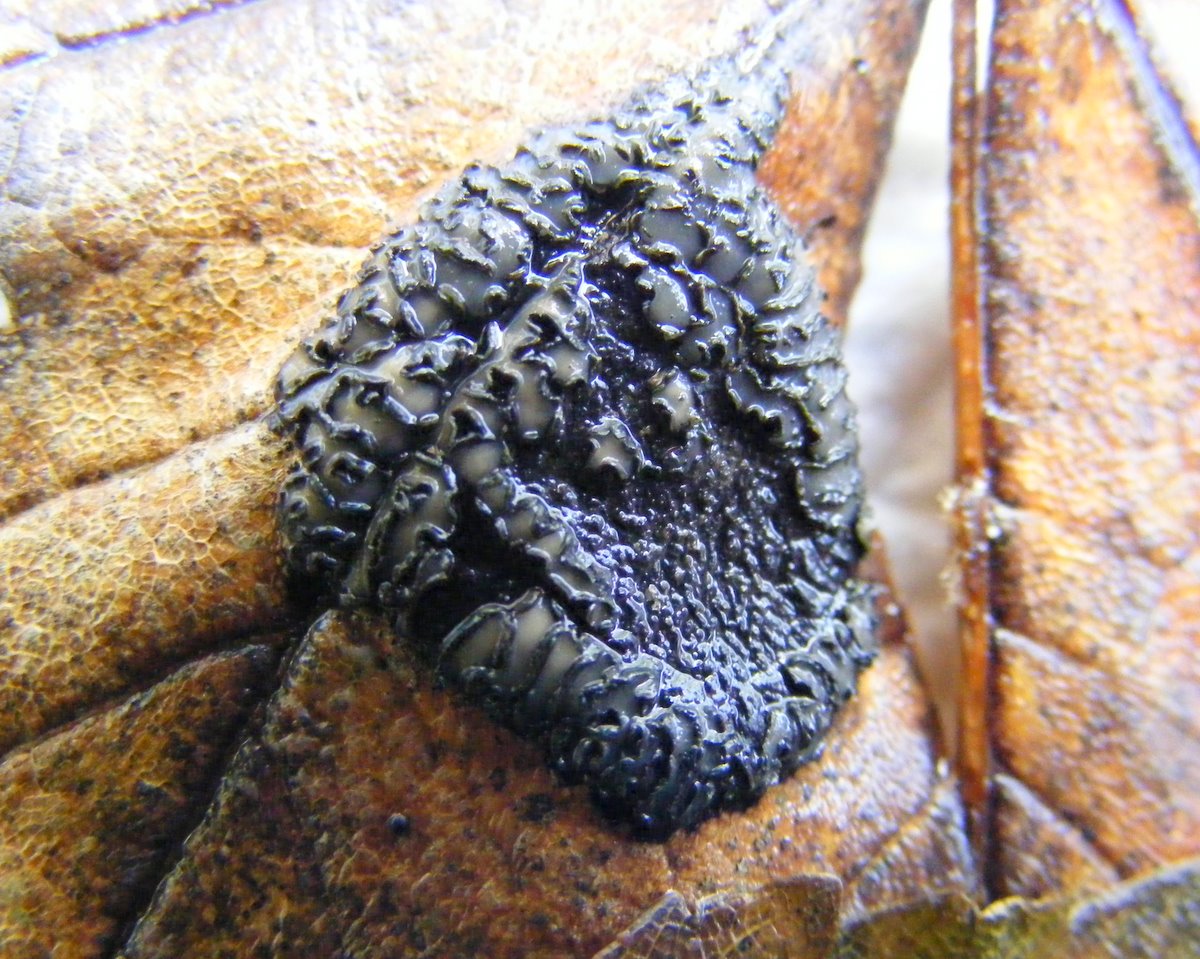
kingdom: Fungi
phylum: Ascomycota
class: Leotiomycetes
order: Rhytismatales
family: Rhytismataceae
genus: Rhytisma
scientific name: Rhytisma acerinum
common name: ahorn-rynkeplet
